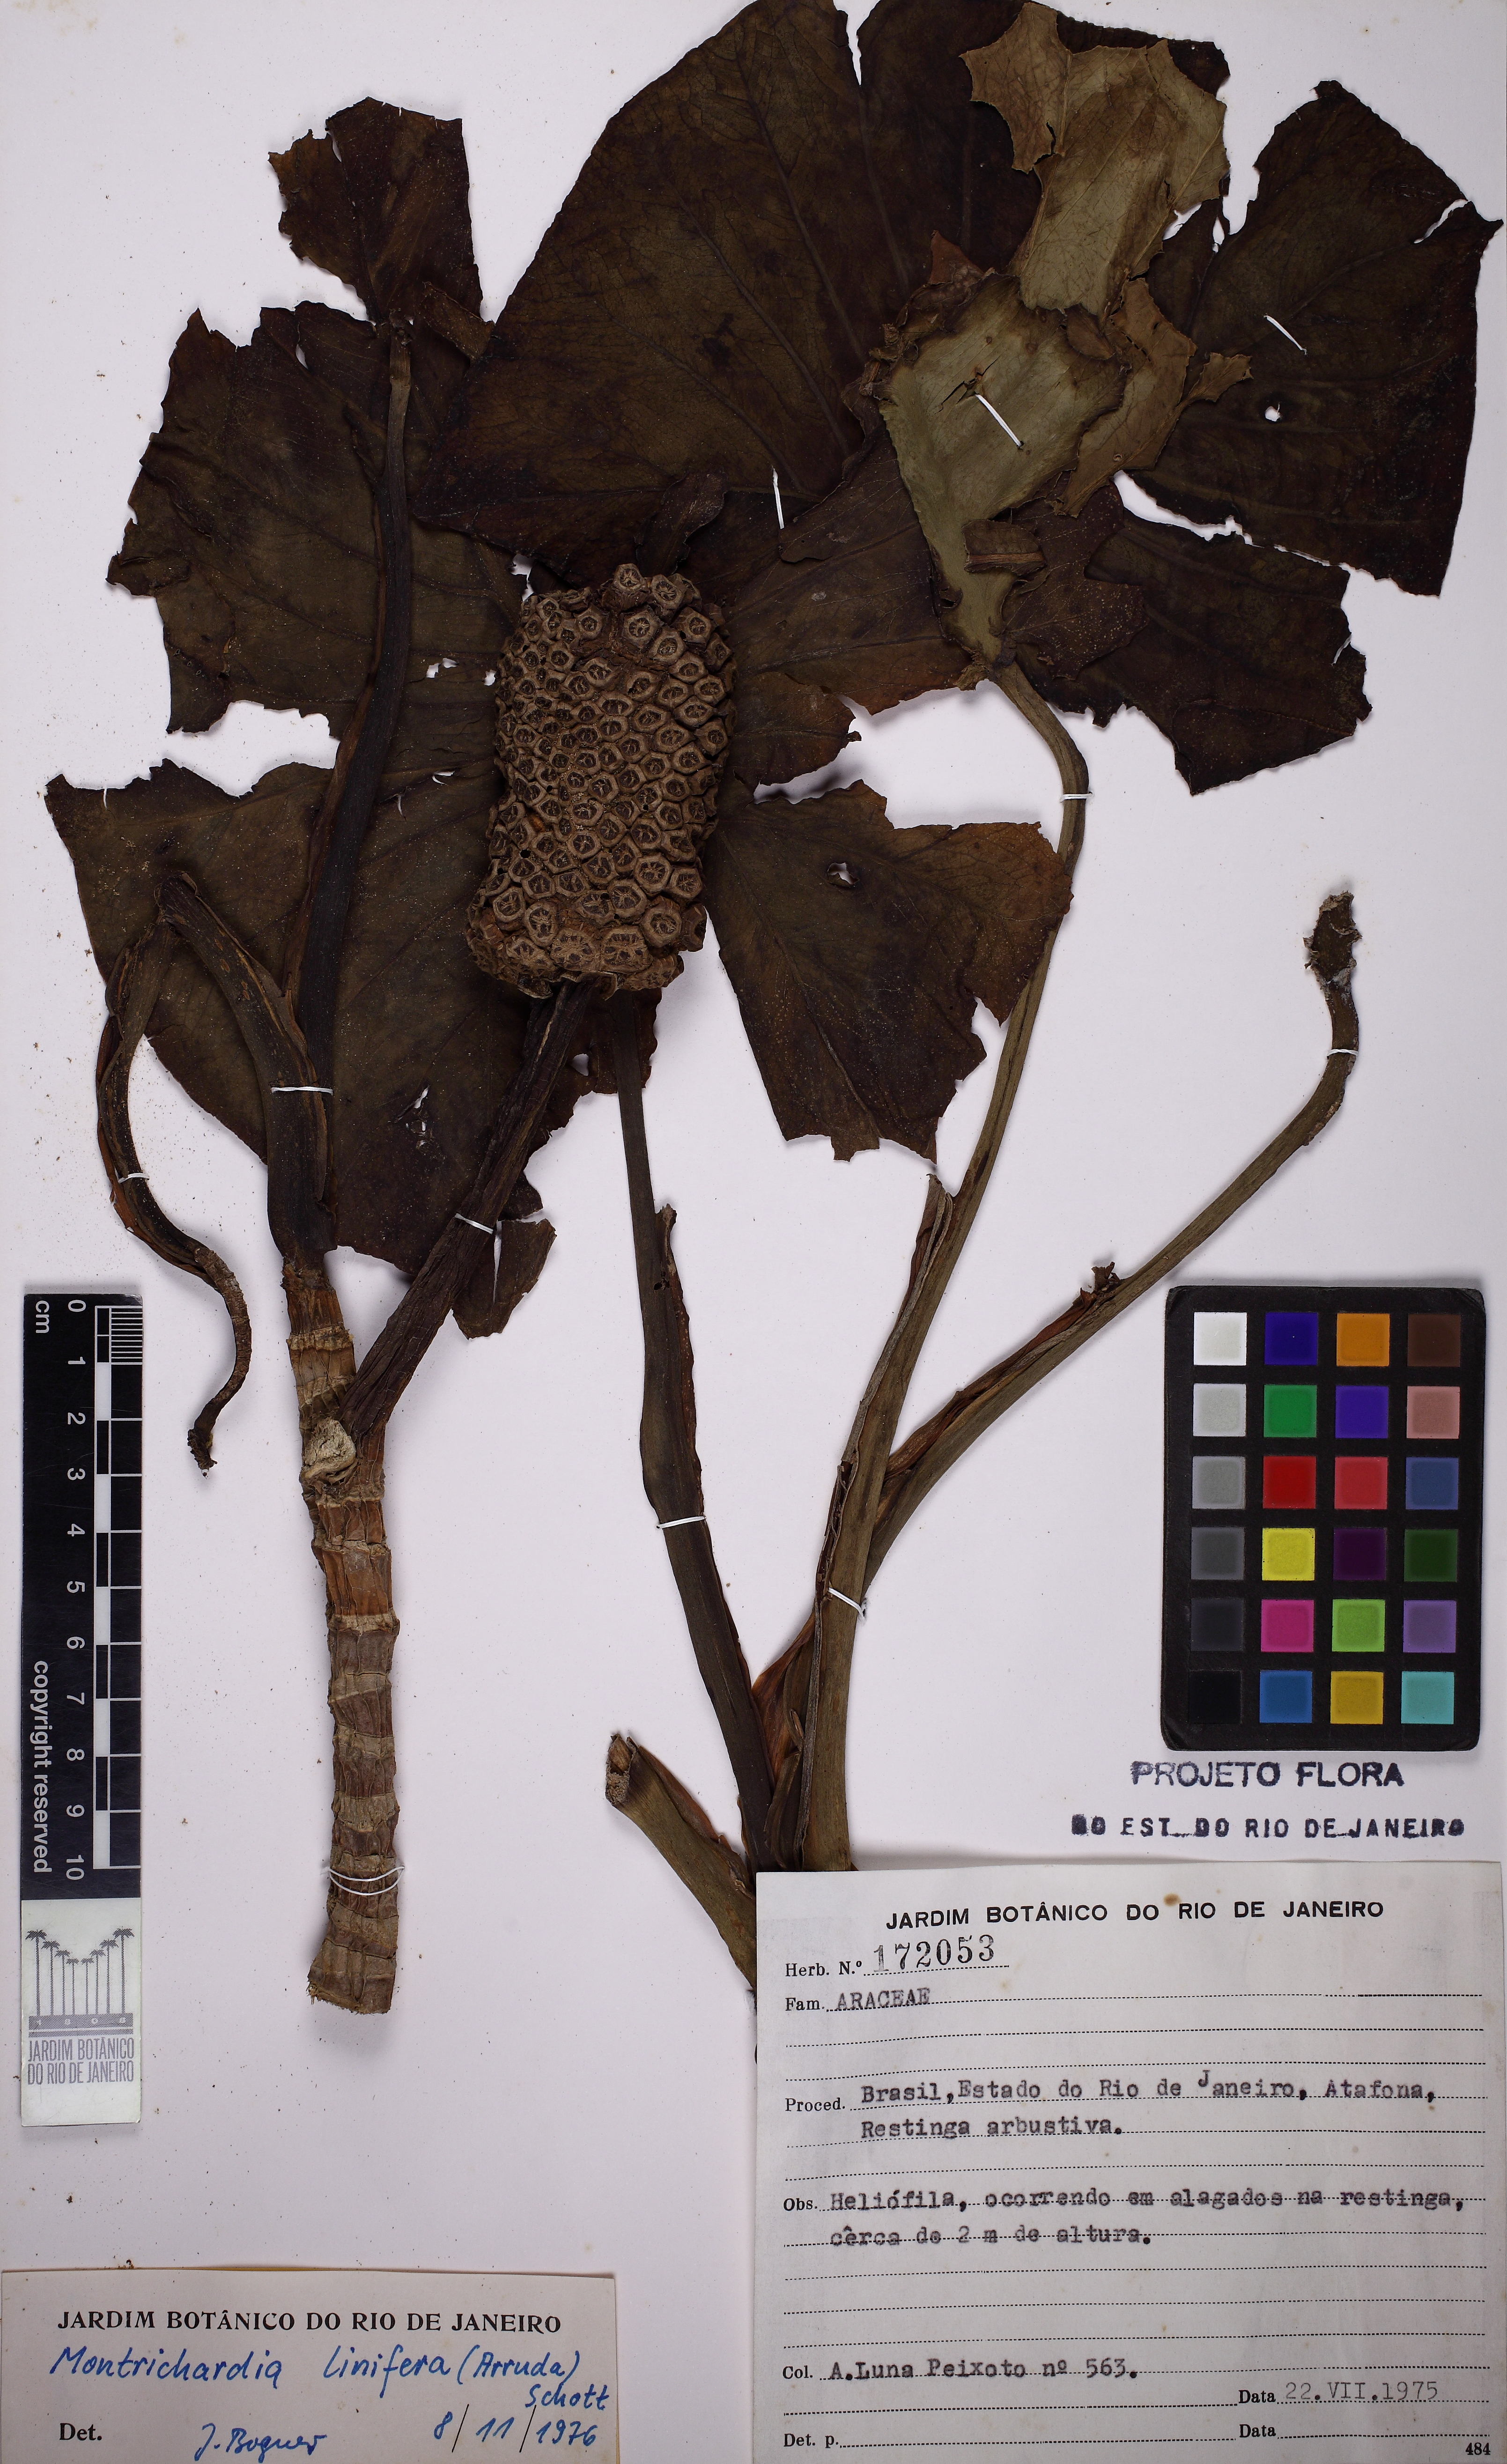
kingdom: Plantae
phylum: Tracheophyta
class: Liliopsida
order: Alismatales
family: Araceae
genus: Montrichardia
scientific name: Montrichardia linifera
